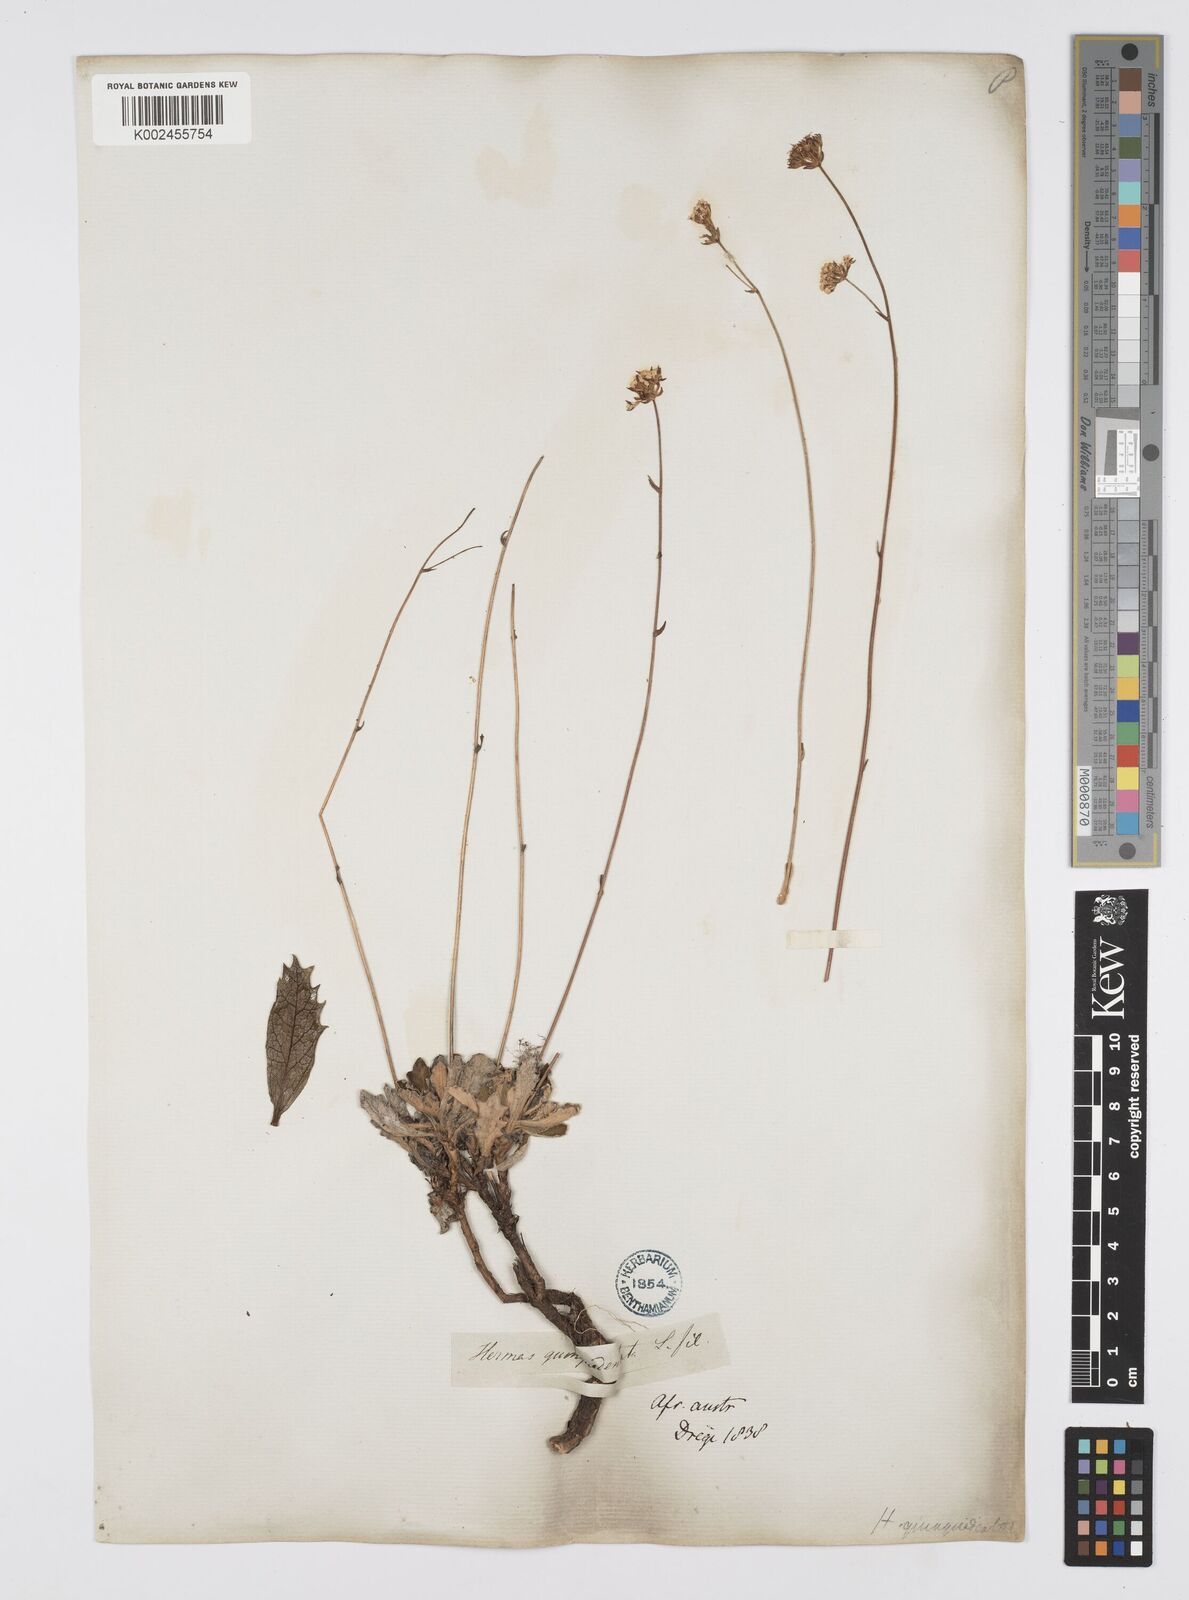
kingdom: Plantae
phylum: Tracheophyta
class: Magnoliopsida
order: Apiales
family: Apiaceae
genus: Hermas
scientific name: Hermas quinquedentata
